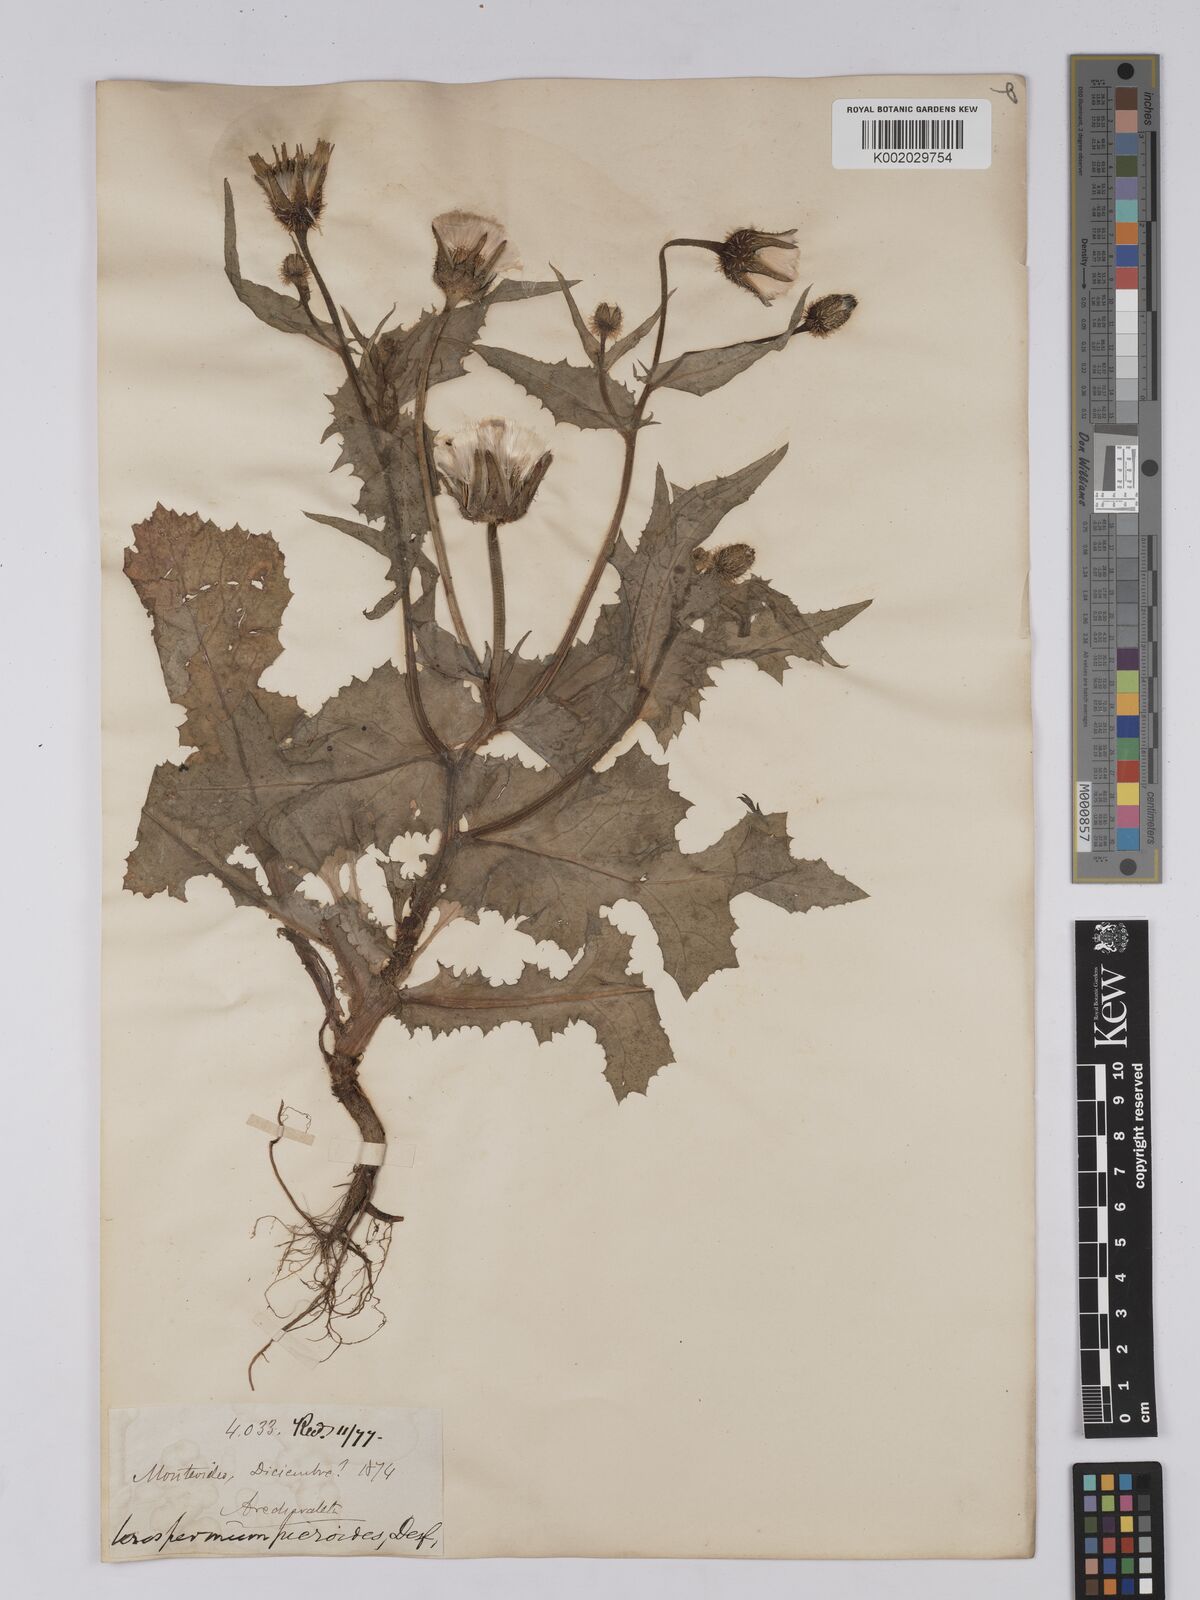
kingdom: Plantae
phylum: Tracheophyta
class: Magnoliopsida
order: Asterales
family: Asteraceae
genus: Urospermum
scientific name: Urospermum picroides
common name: False hawkbit
